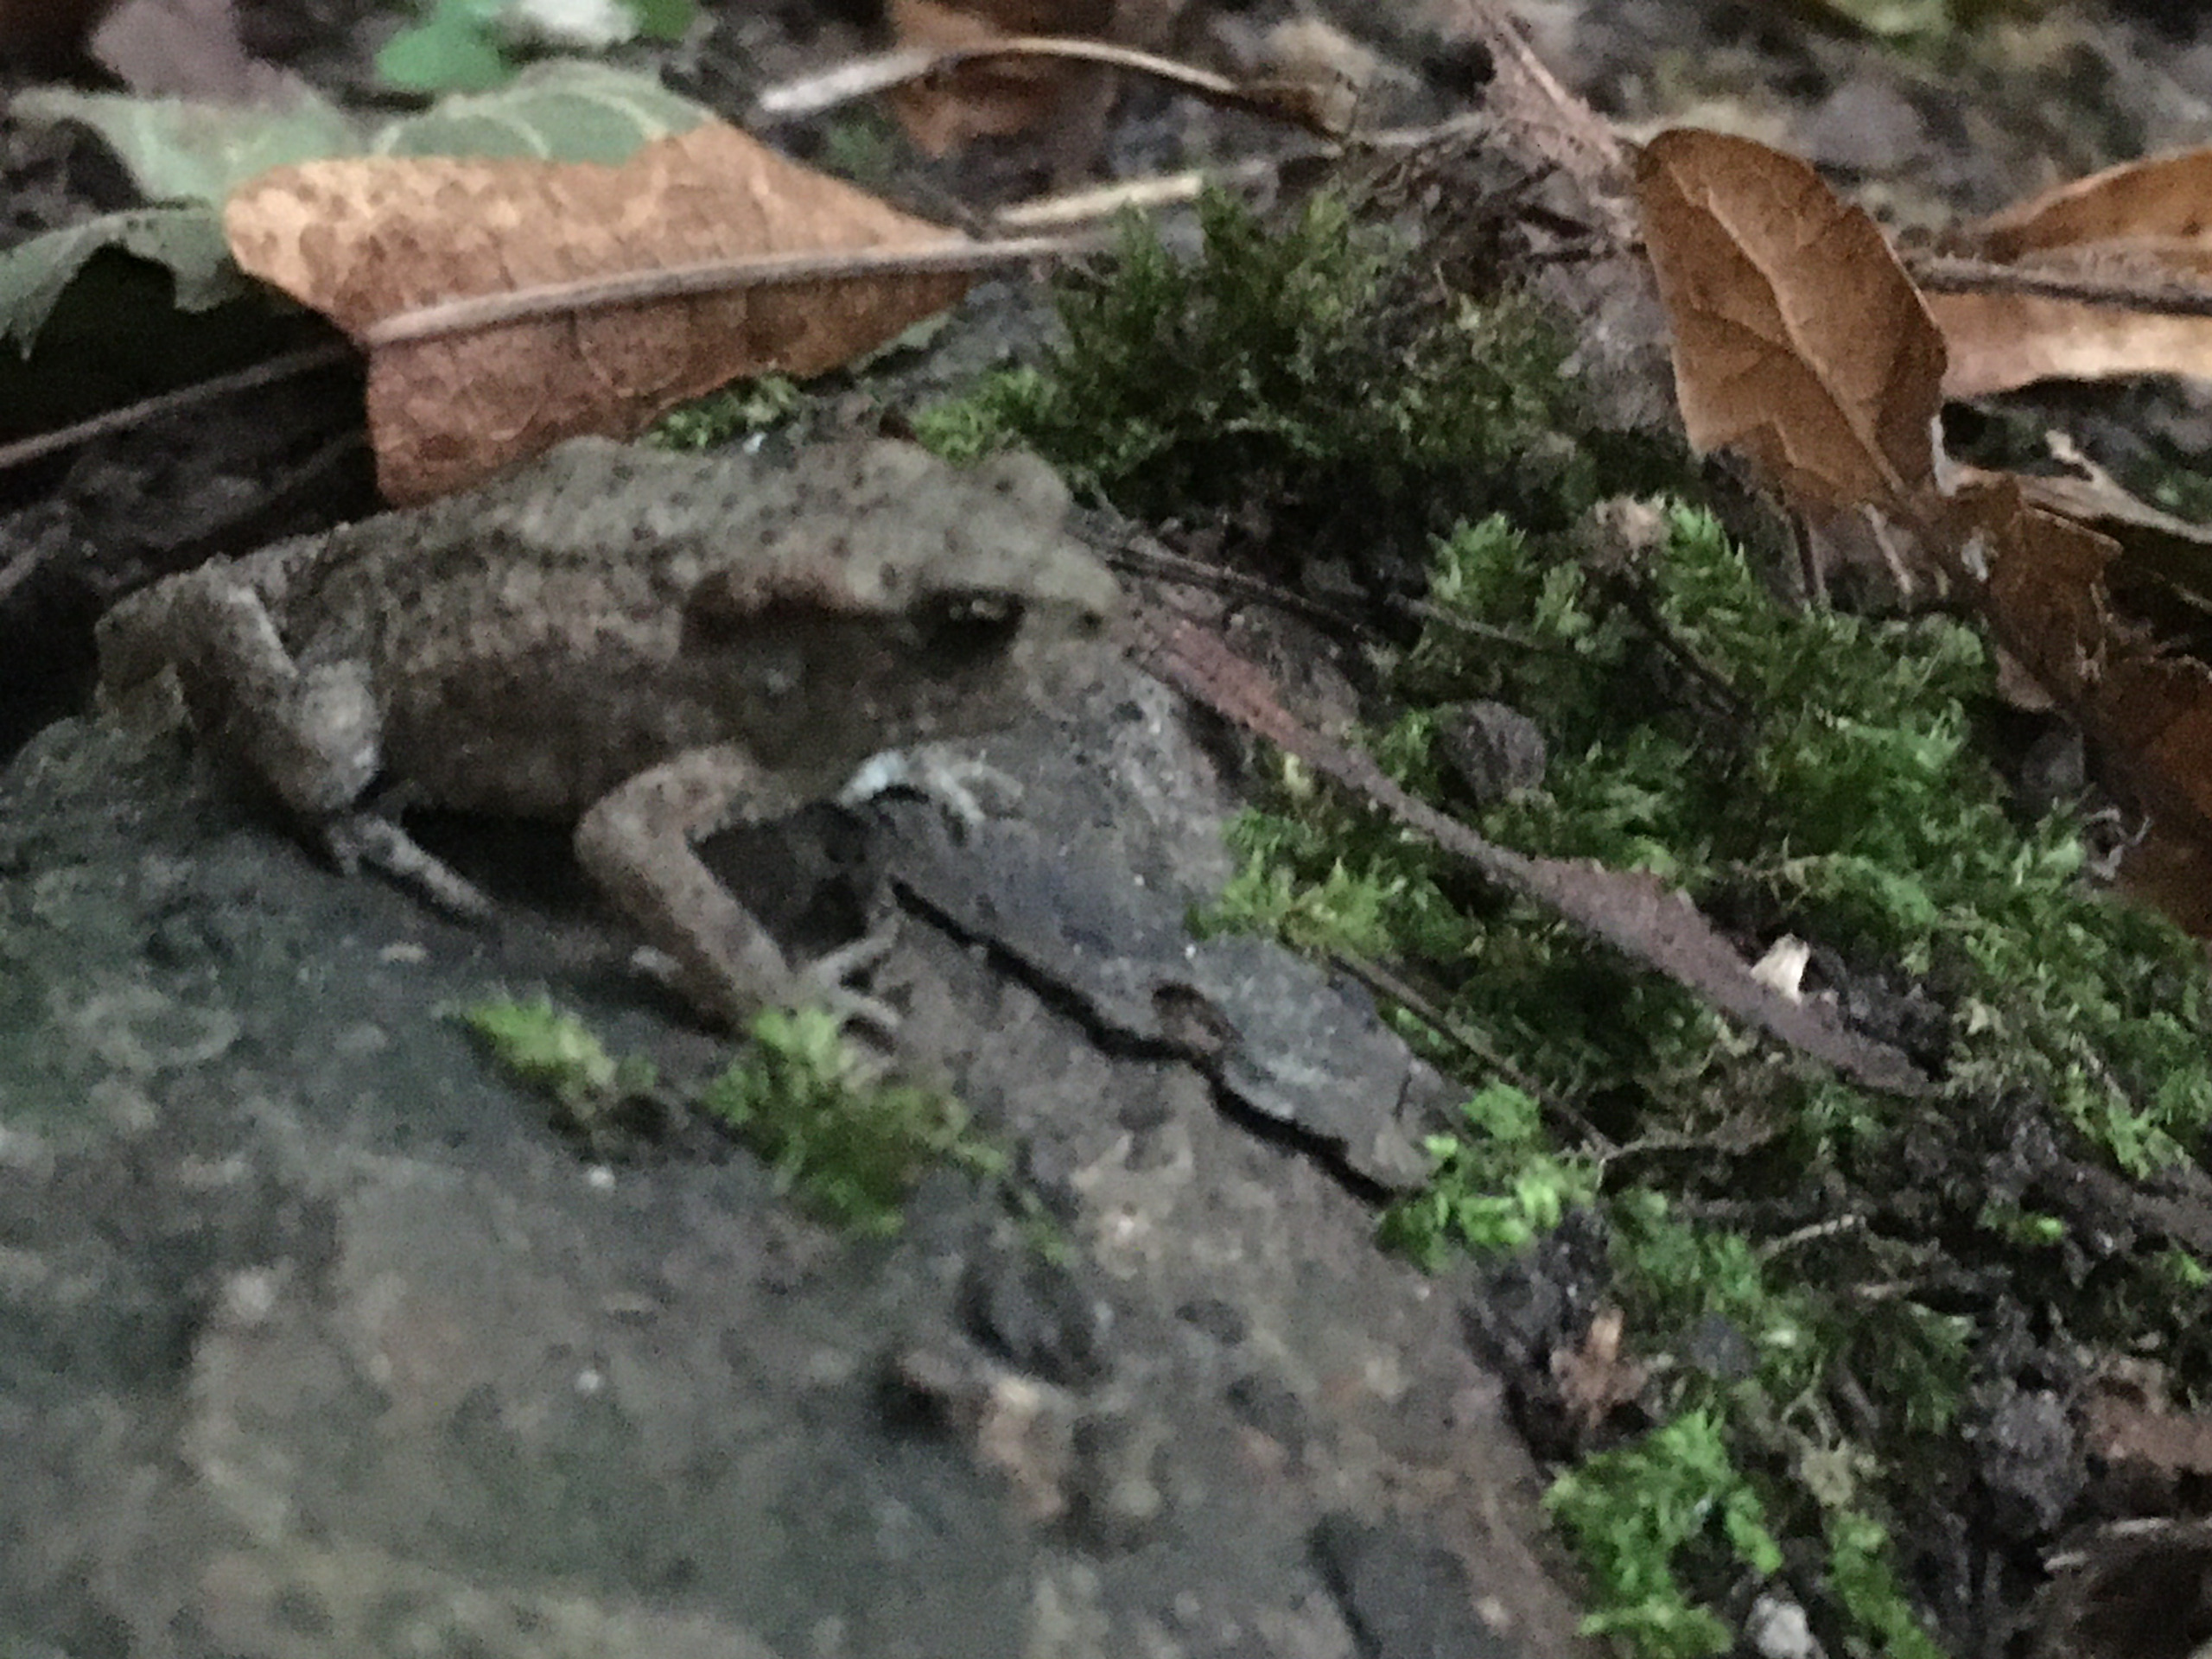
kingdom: Animalia
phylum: Chordata
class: Amphibia
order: Anura
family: Bufonidae
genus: Bufo
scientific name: Bufo bufo
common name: Skrubtudse
